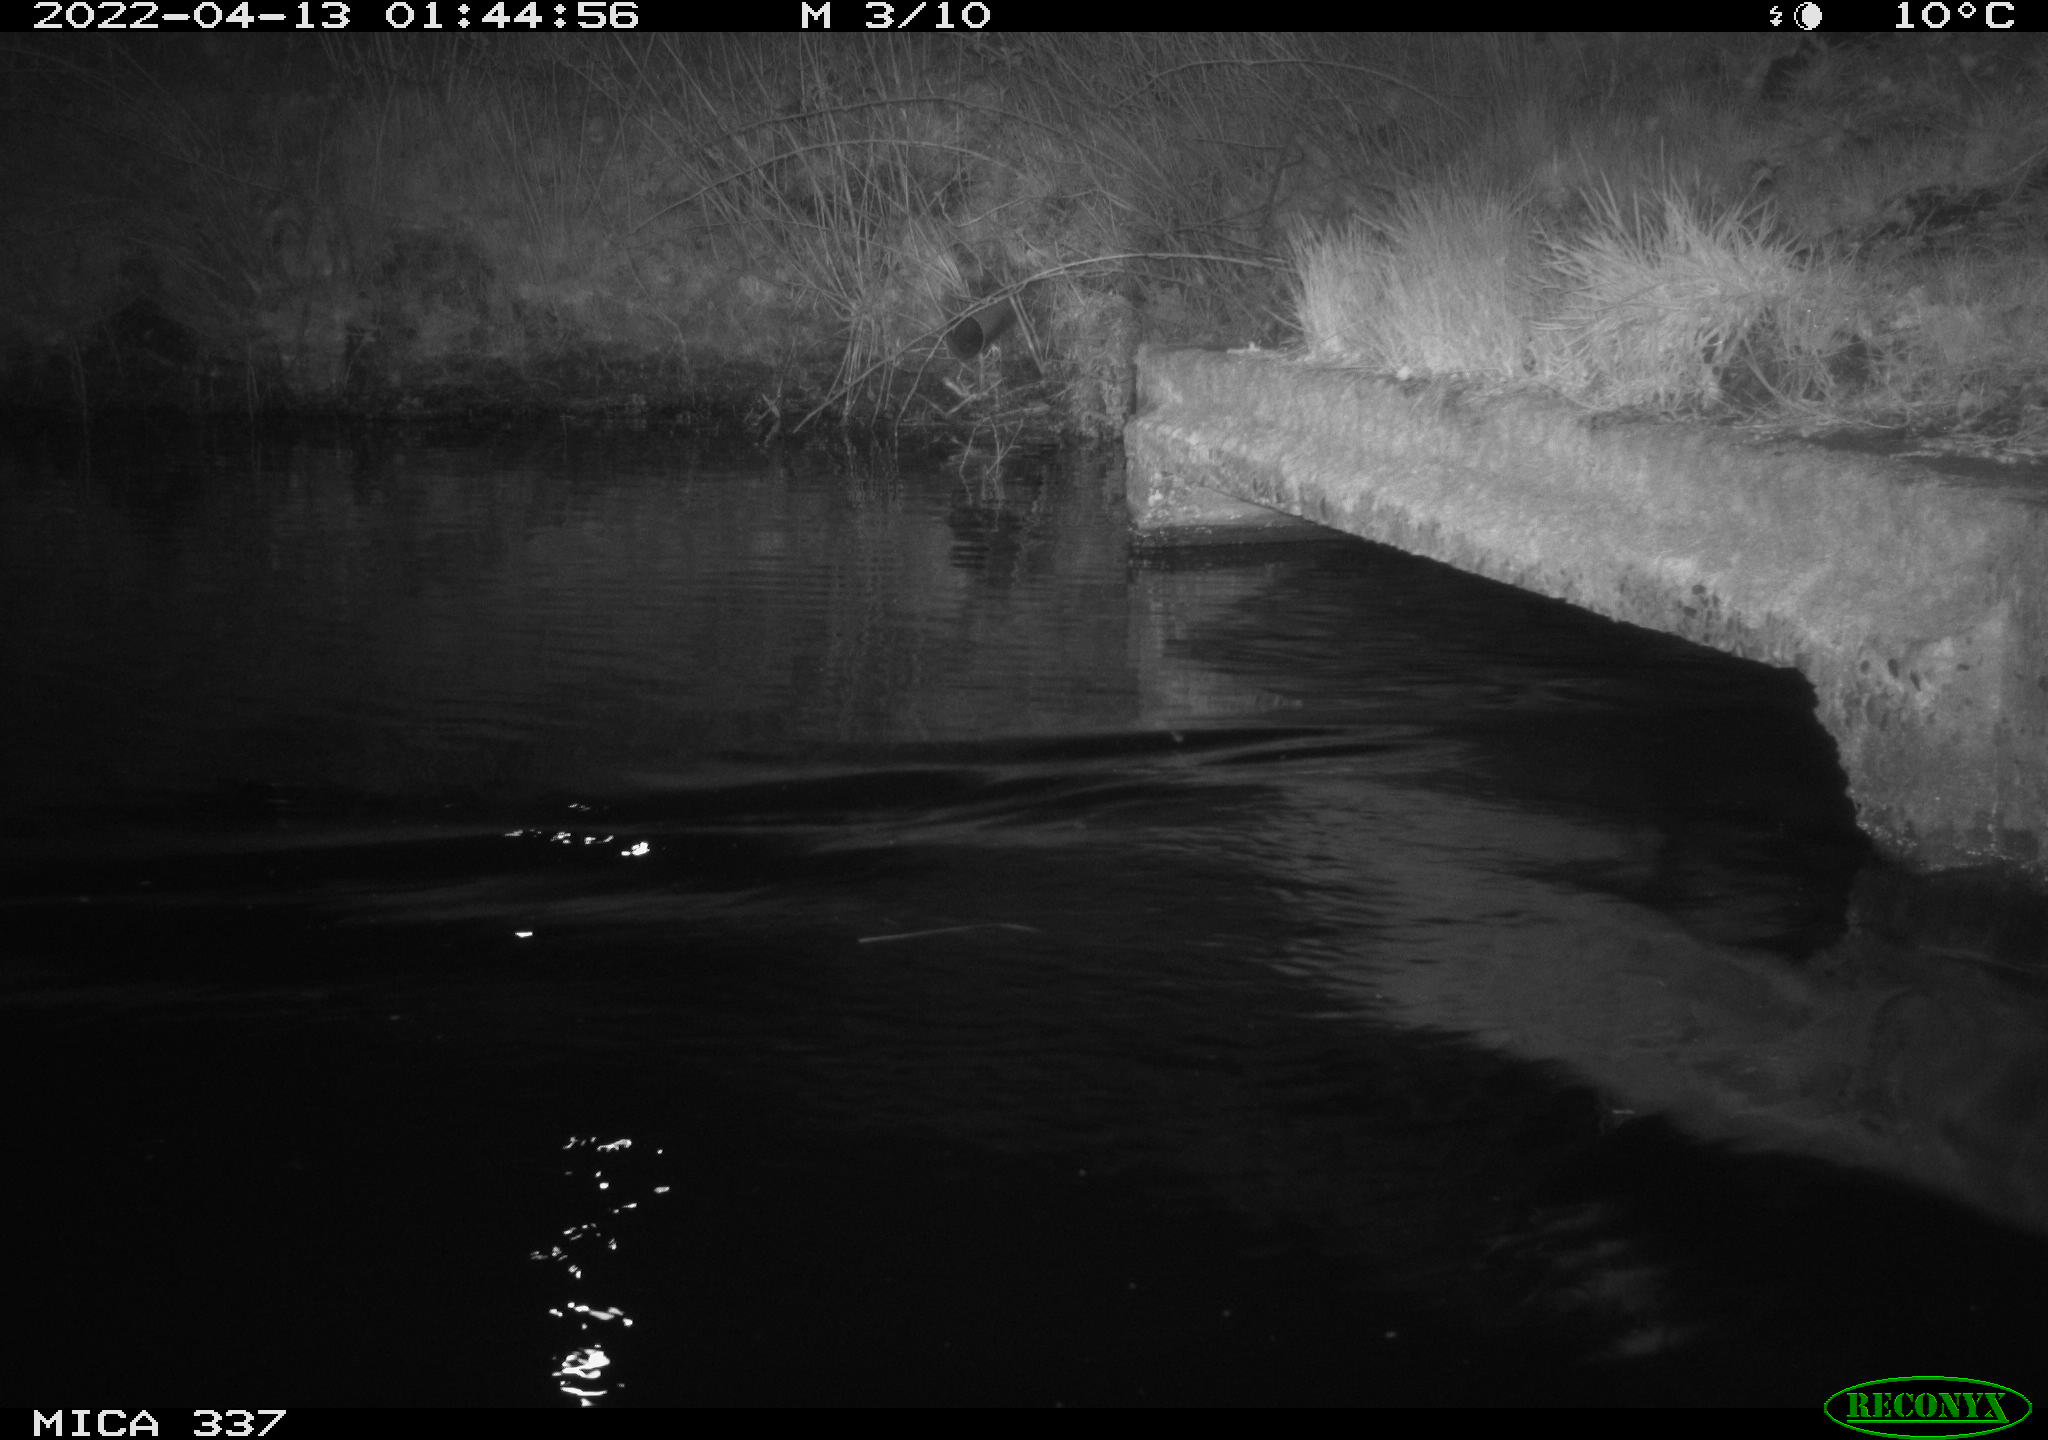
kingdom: Animalia
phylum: Chordata
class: Aves
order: Anseriformes
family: Anatidae
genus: Anas
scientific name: Anas platyrhynchos
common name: Mallard
